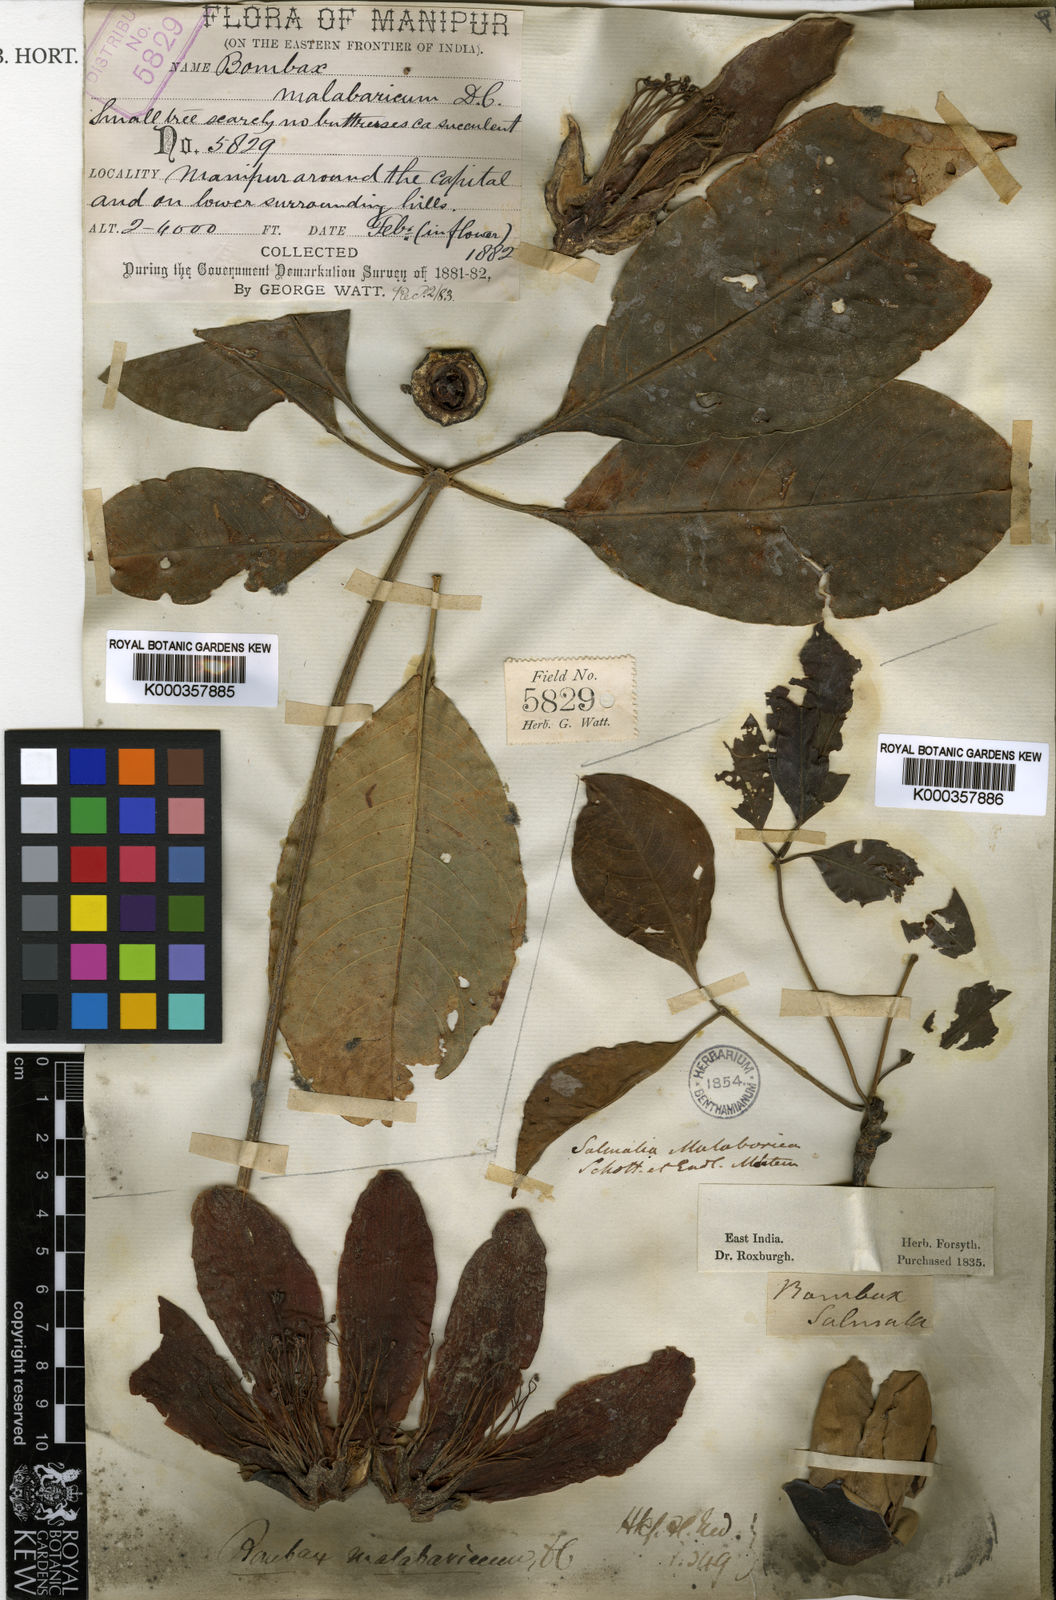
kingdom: Plantae
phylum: Tracheophyta
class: Magnoliopsida
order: Malvales
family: Malvaceae
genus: Bombax
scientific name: Bombax ceiba
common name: Northern-cottonwood
